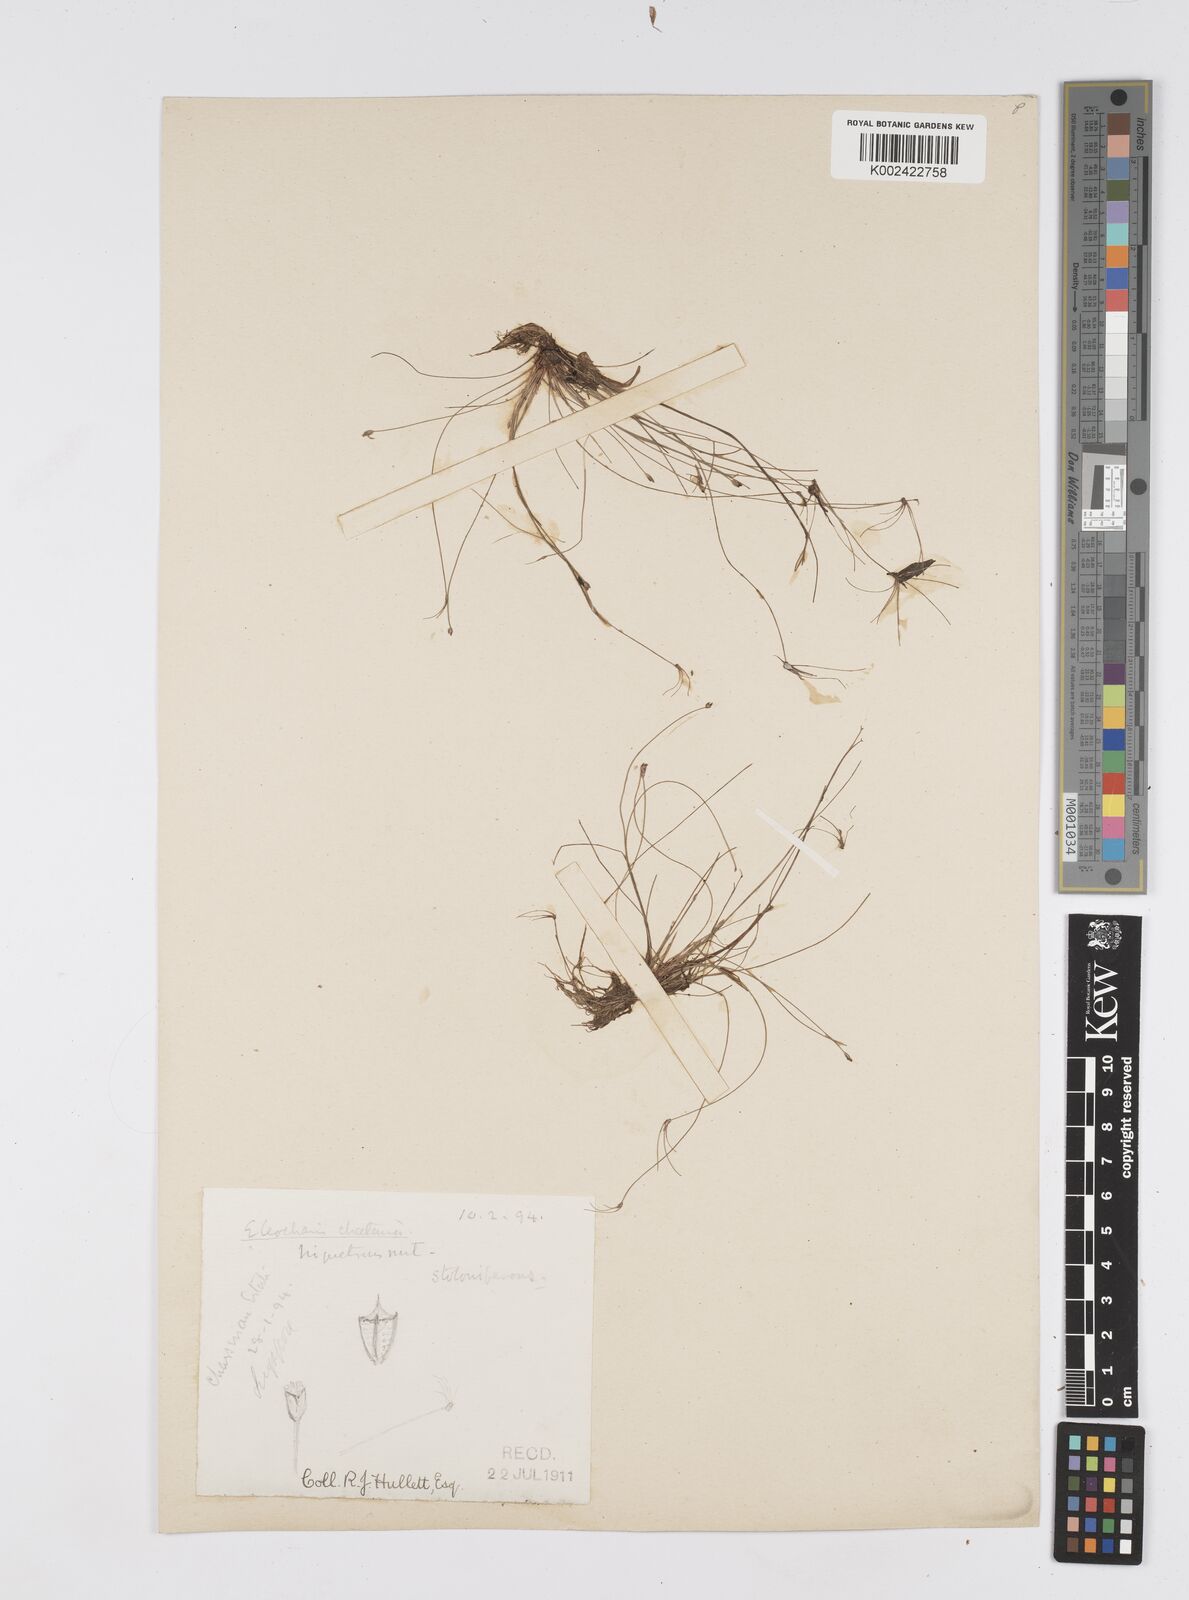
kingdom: Plantae
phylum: Tracheophyta
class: Liliopsida
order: Poales
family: Cyperaceae
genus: Eleocharis
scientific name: Eleocharis retroflexa
